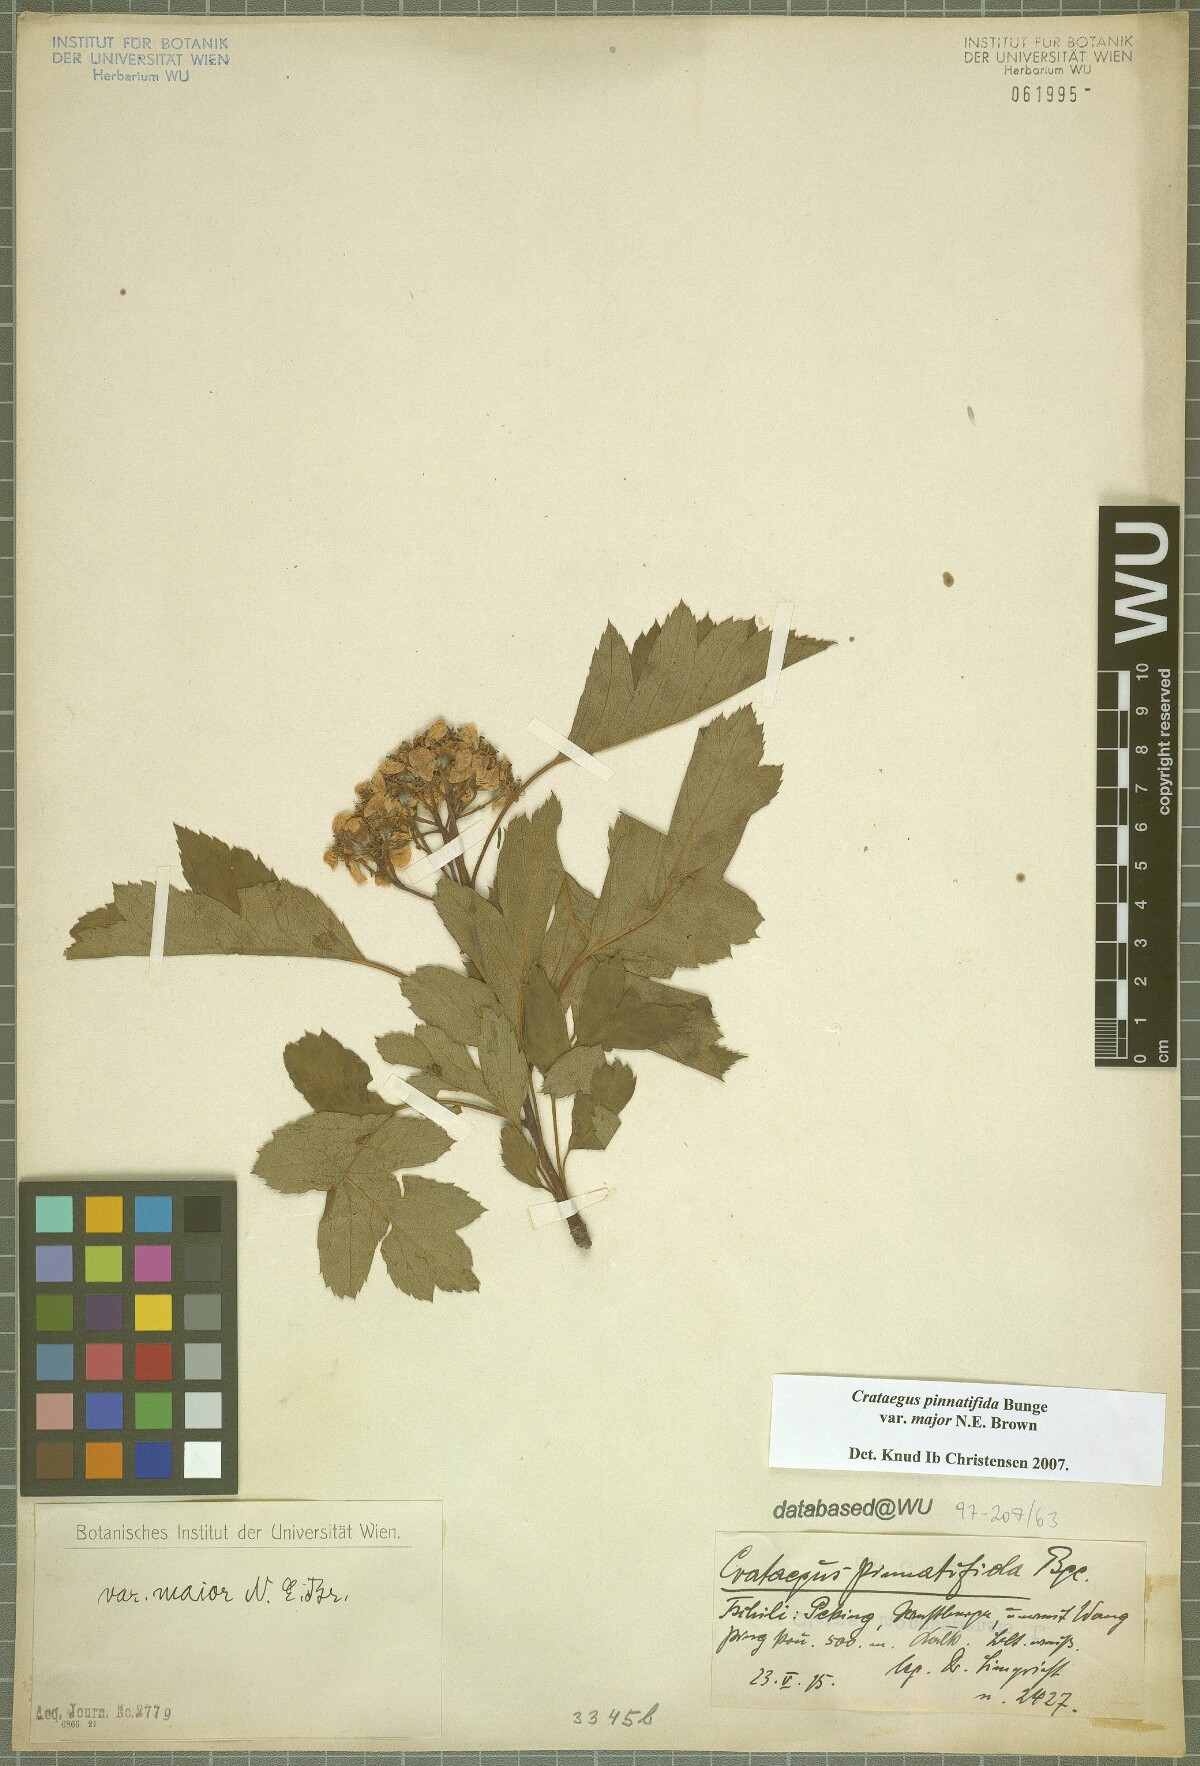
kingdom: Plantae
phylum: Tracheophyta
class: Magnoliopsida
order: Rosales
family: Rosaceae
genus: Crataegus
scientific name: Crataegus pinnatifida
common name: Chinese haw
